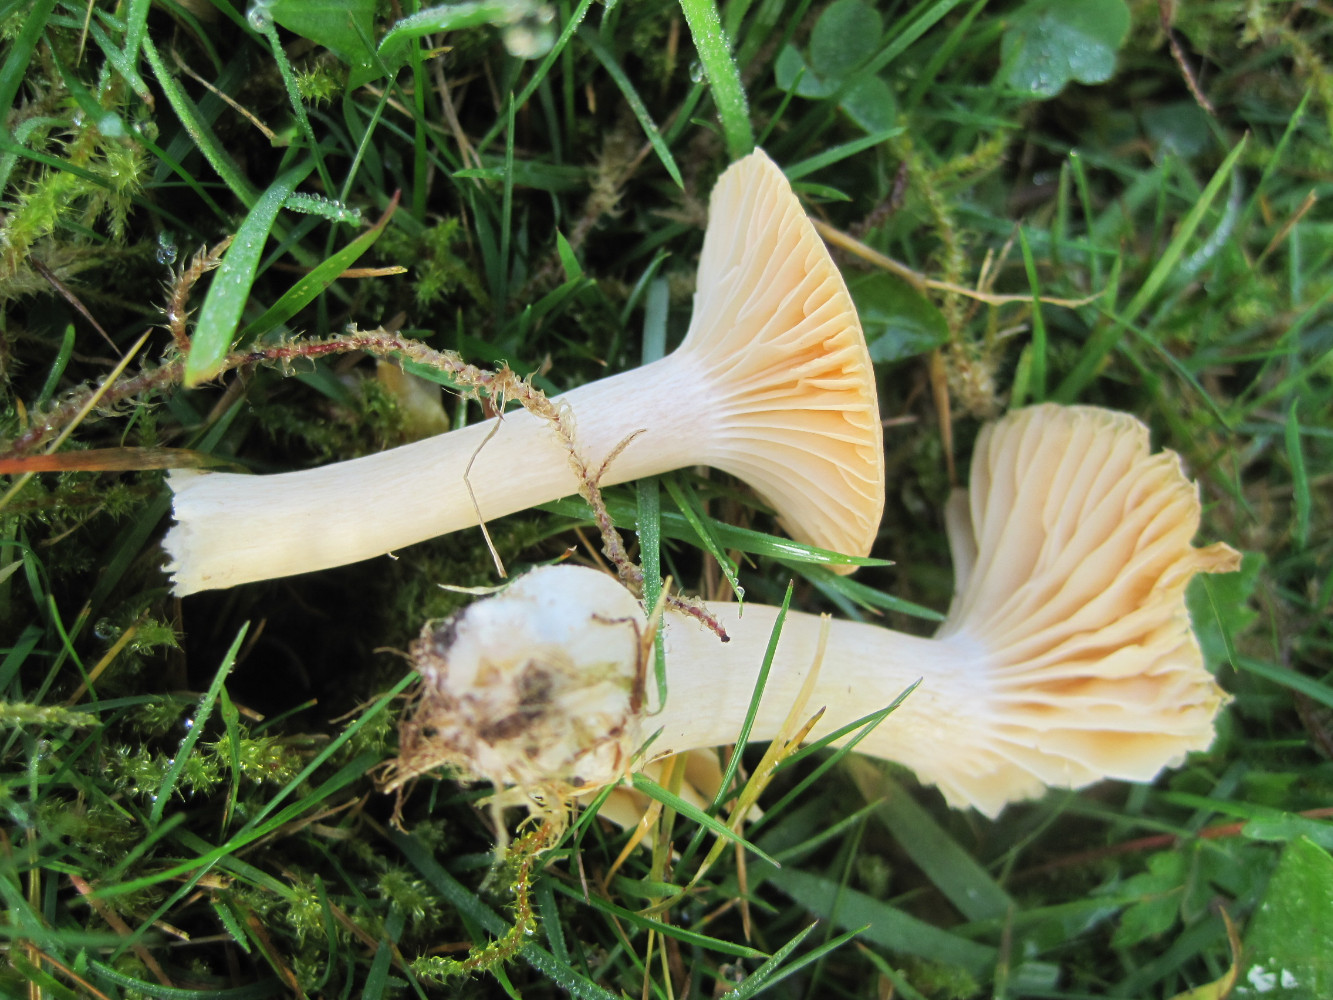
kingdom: Fungi
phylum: Basidiomycota
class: Agaricomycetes
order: Agaricales
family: Hygrophoraceae
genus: Cuphophyllus
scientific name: Cuphophyllus pratensis
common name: eng-vokshat
